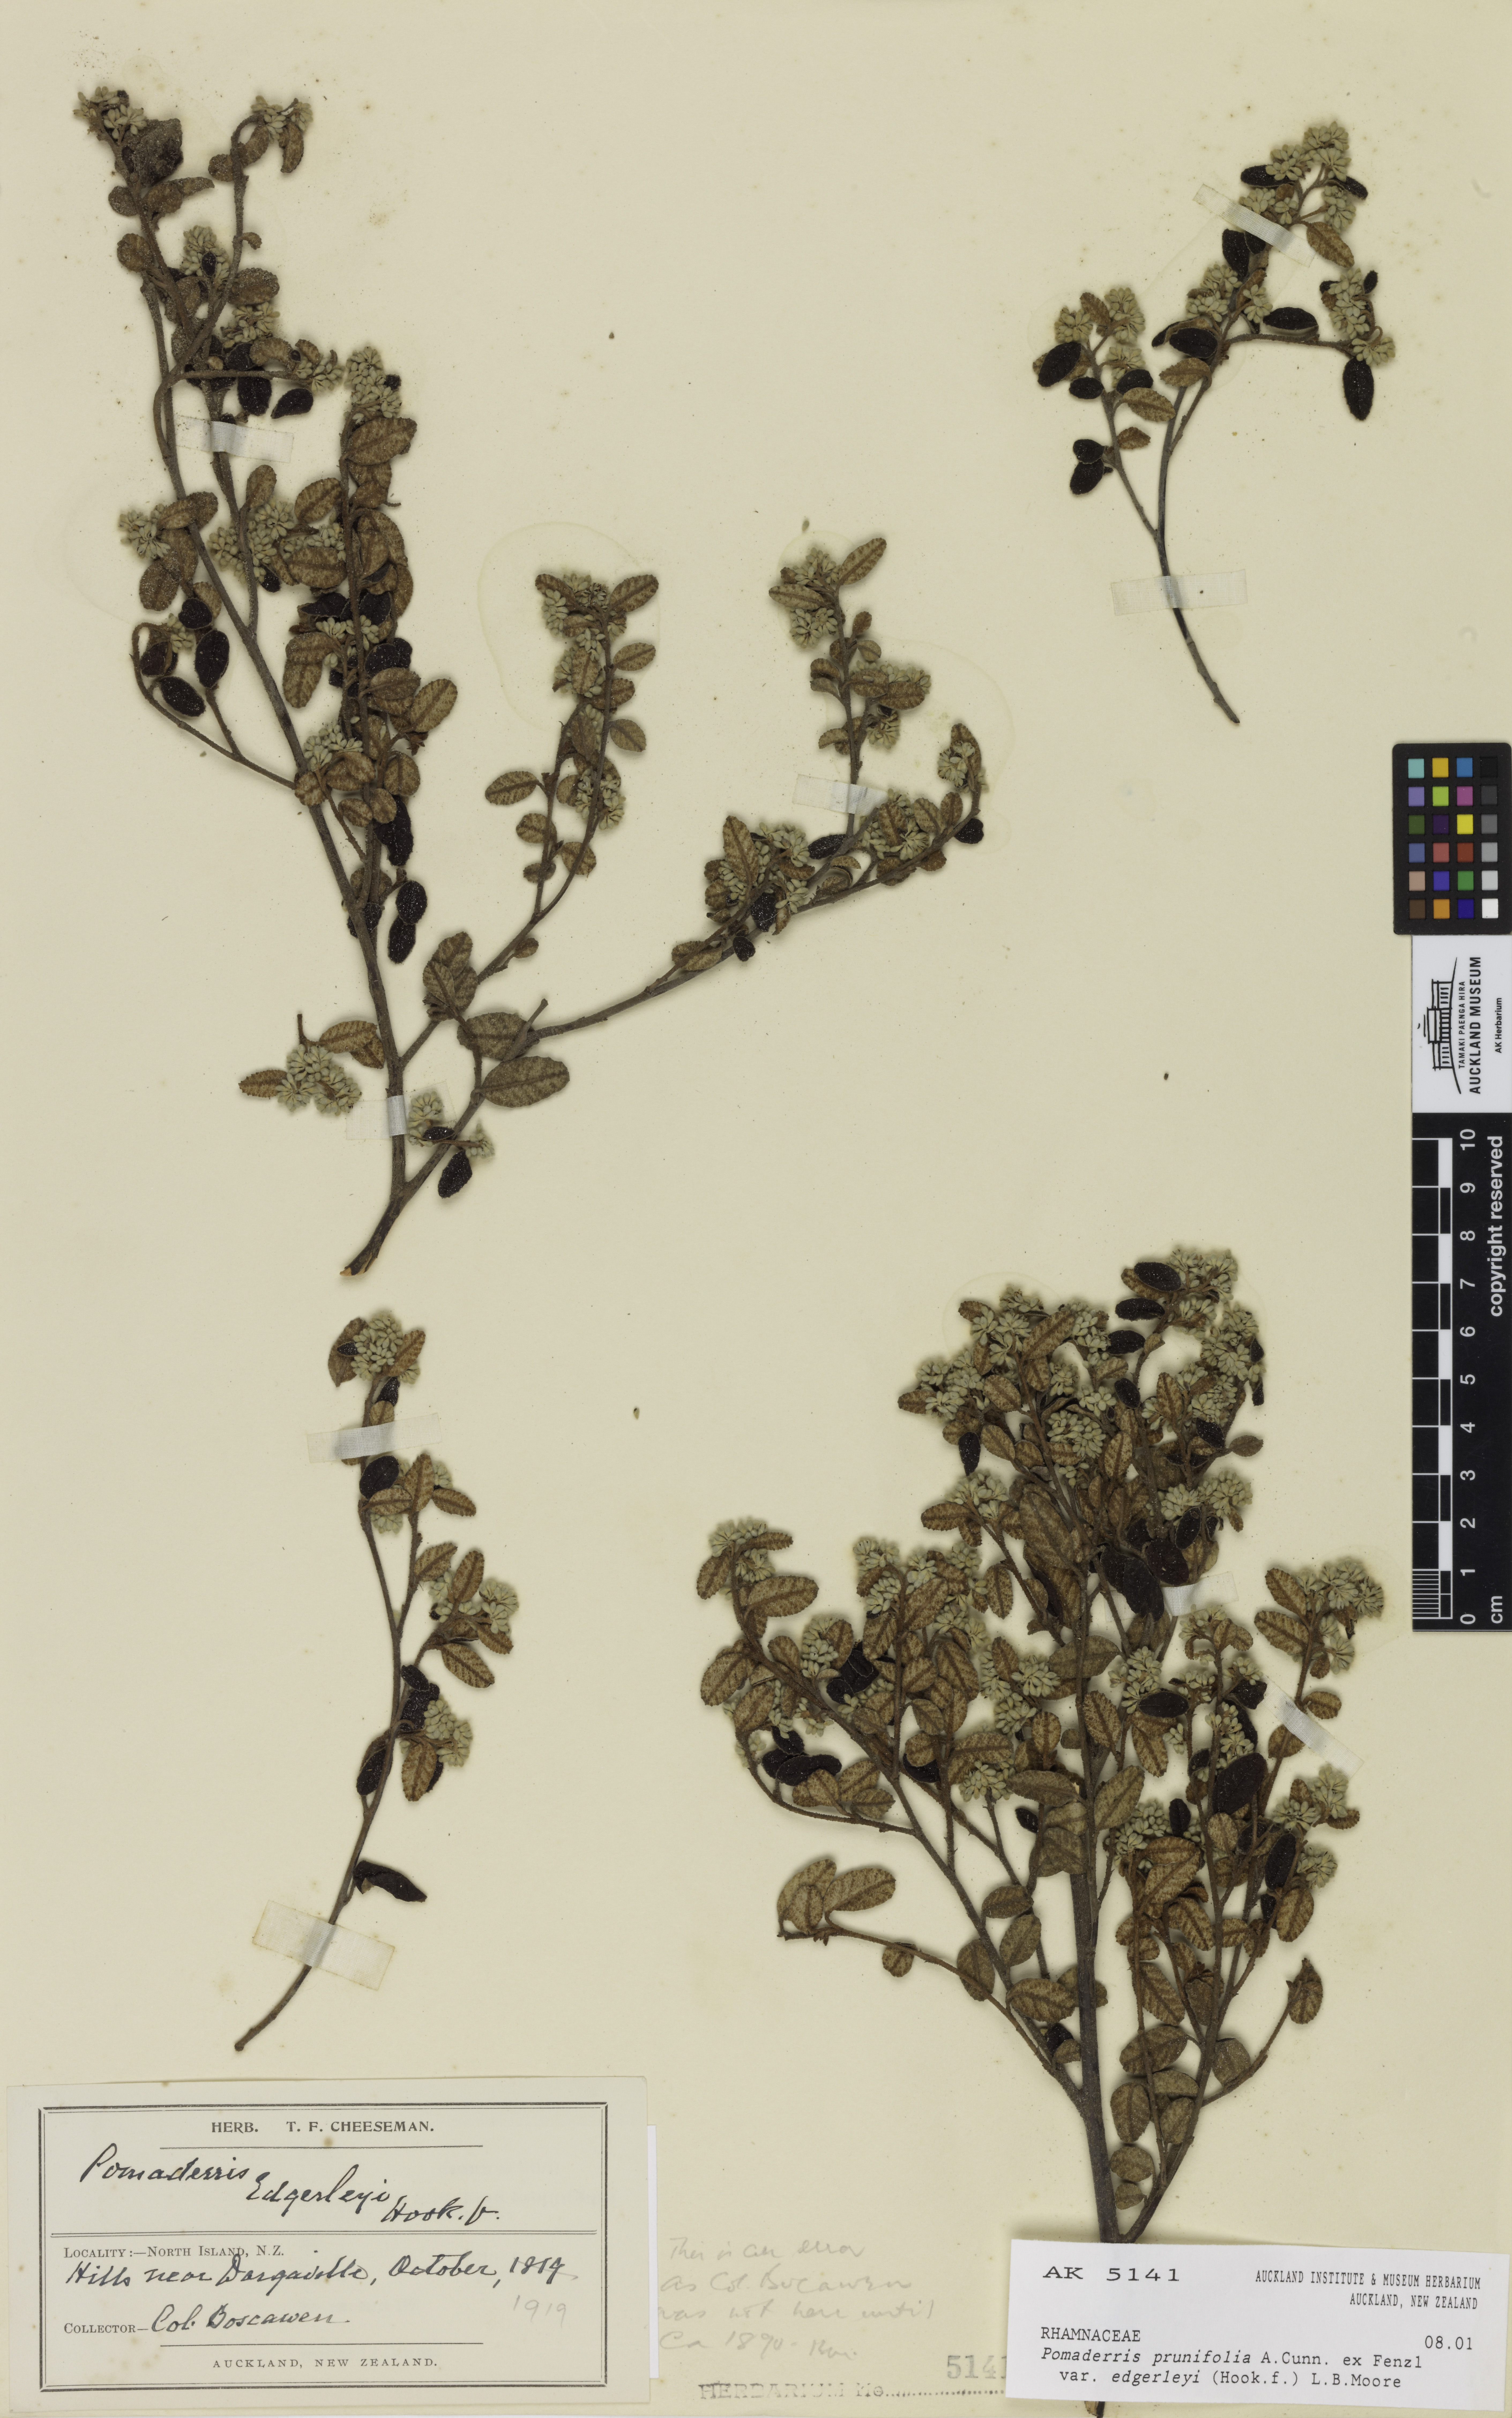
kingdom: Plantae
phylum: Tracheophyta
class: Magnoliopsida
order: Rosales
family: Rhamnaceae
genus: Pomaderris
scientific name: Pomaderris edgerleyi
